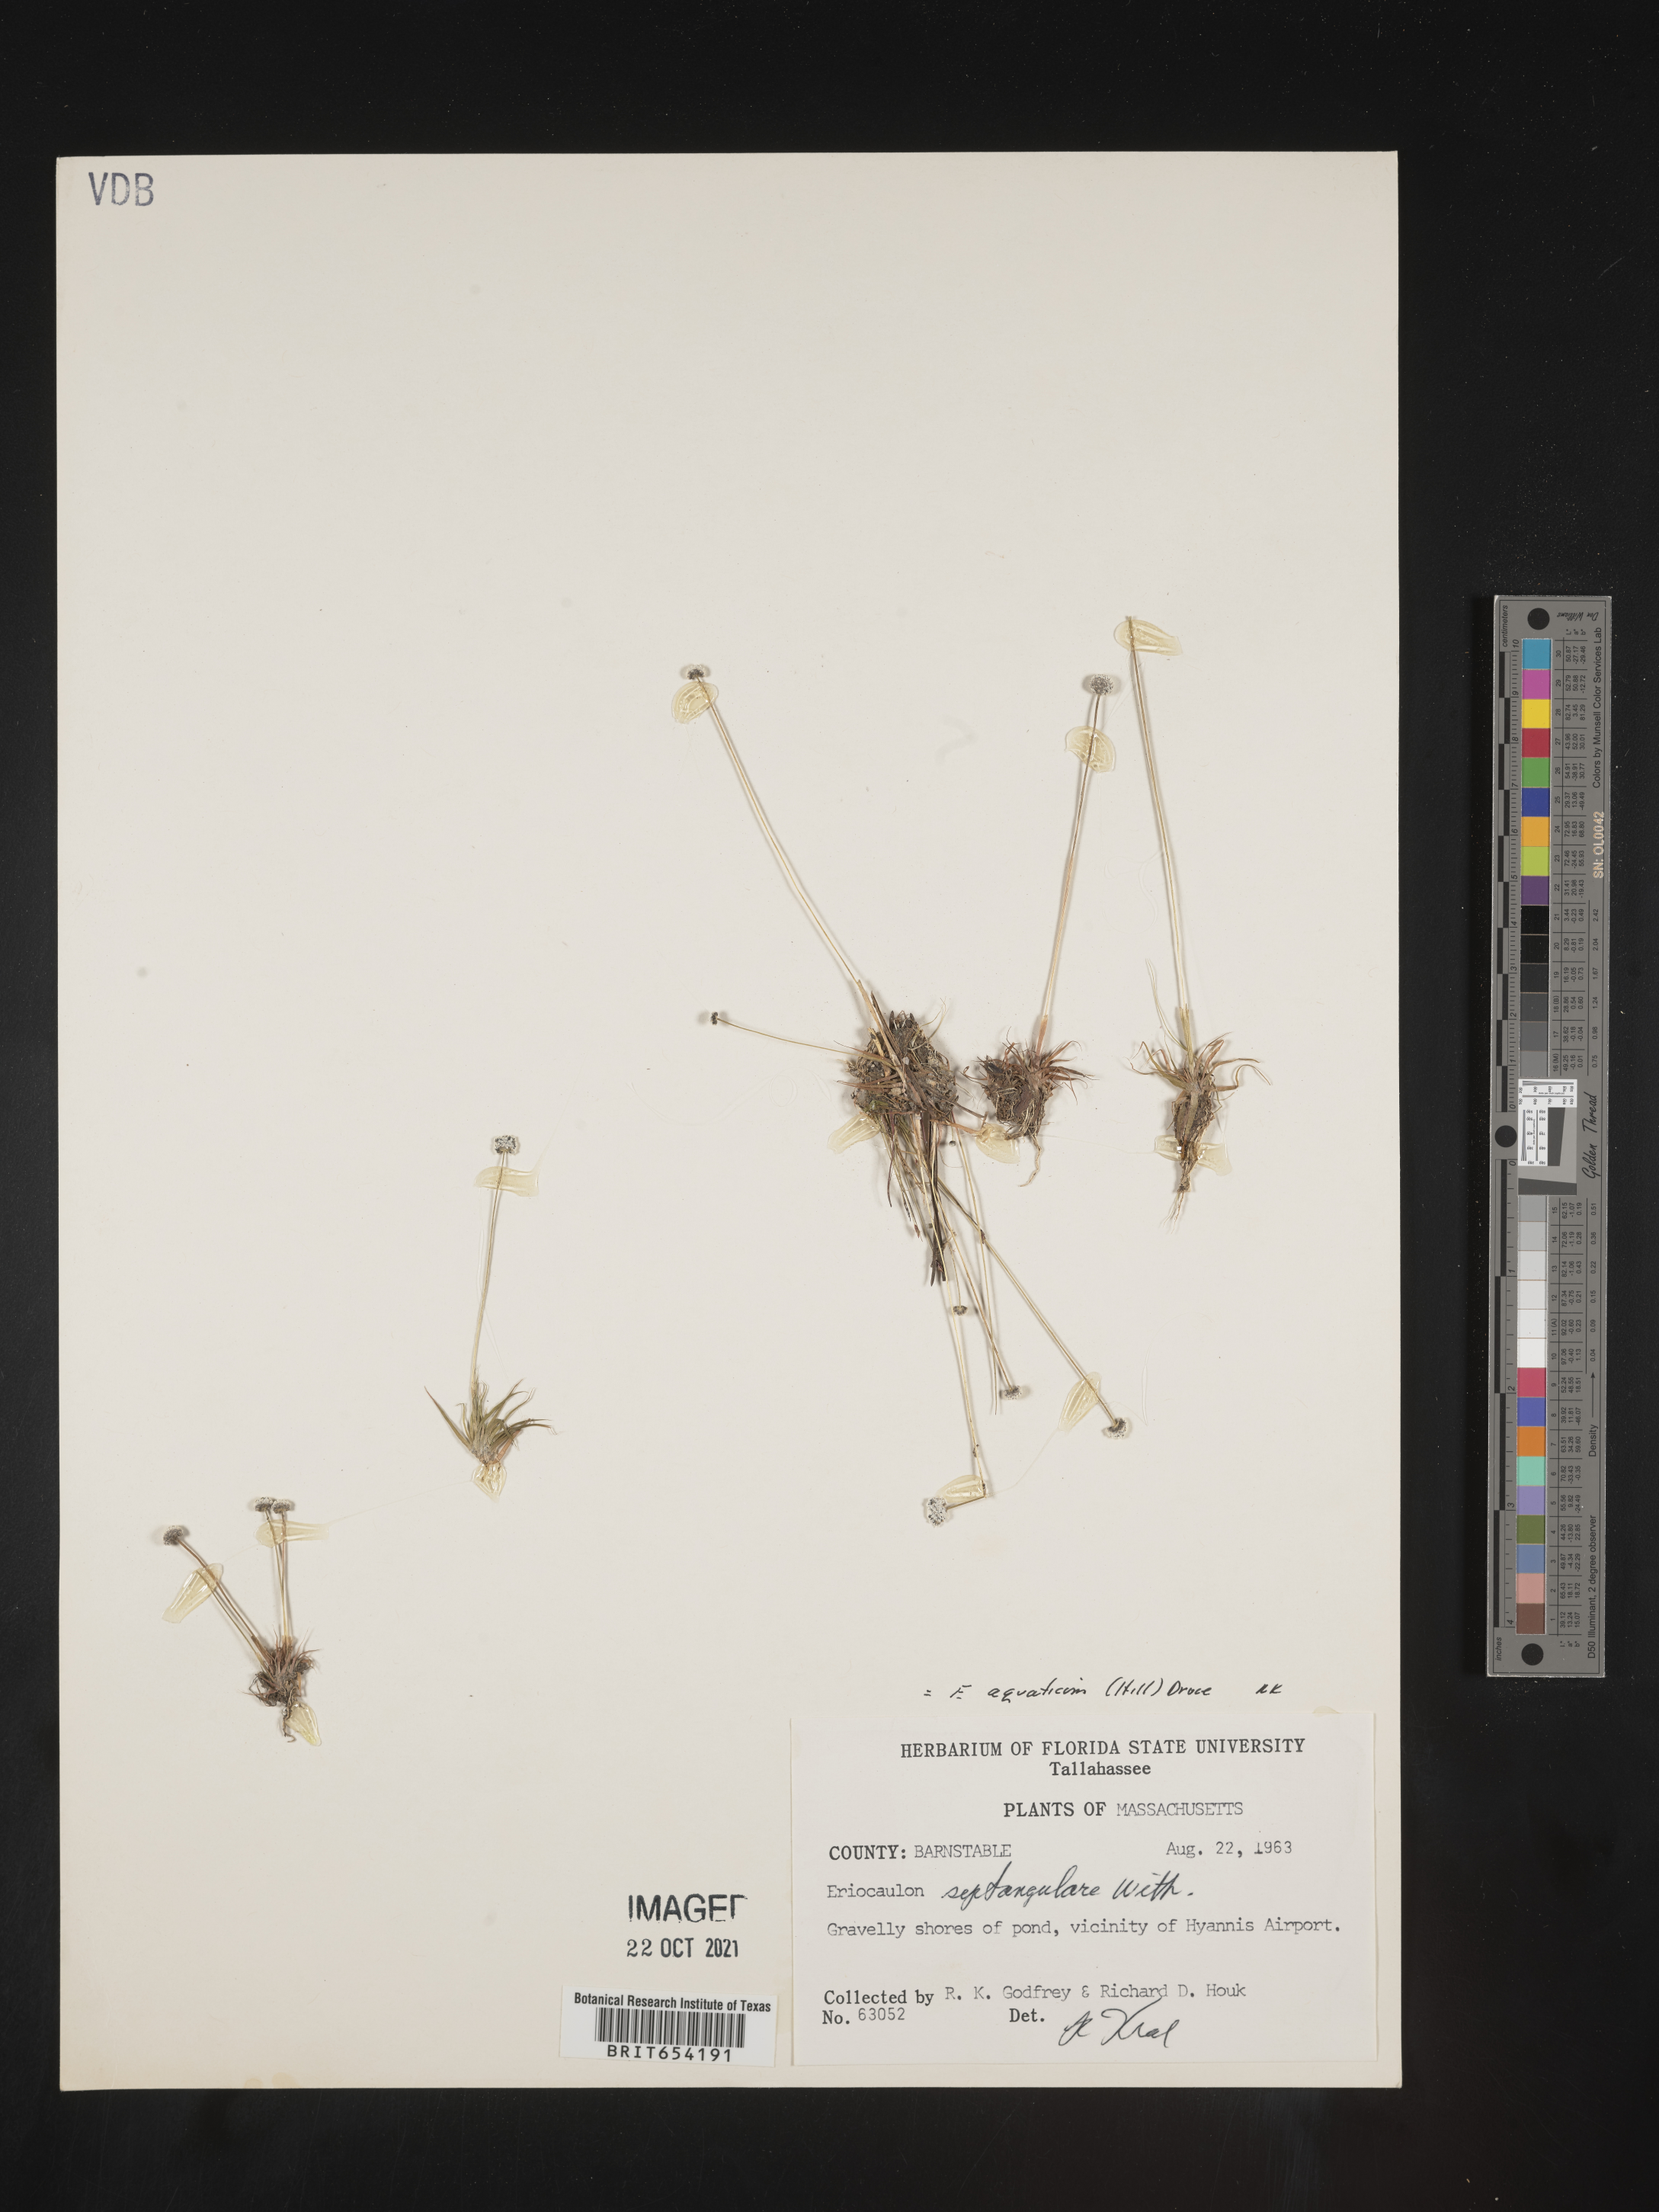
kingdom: Plantae
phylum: Tracheophyta
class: Liliopsida
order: Poales
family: Eriocaulaceae
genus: Eriocaulon
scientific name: Eriocaulon aquaticum
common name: Pipewort
